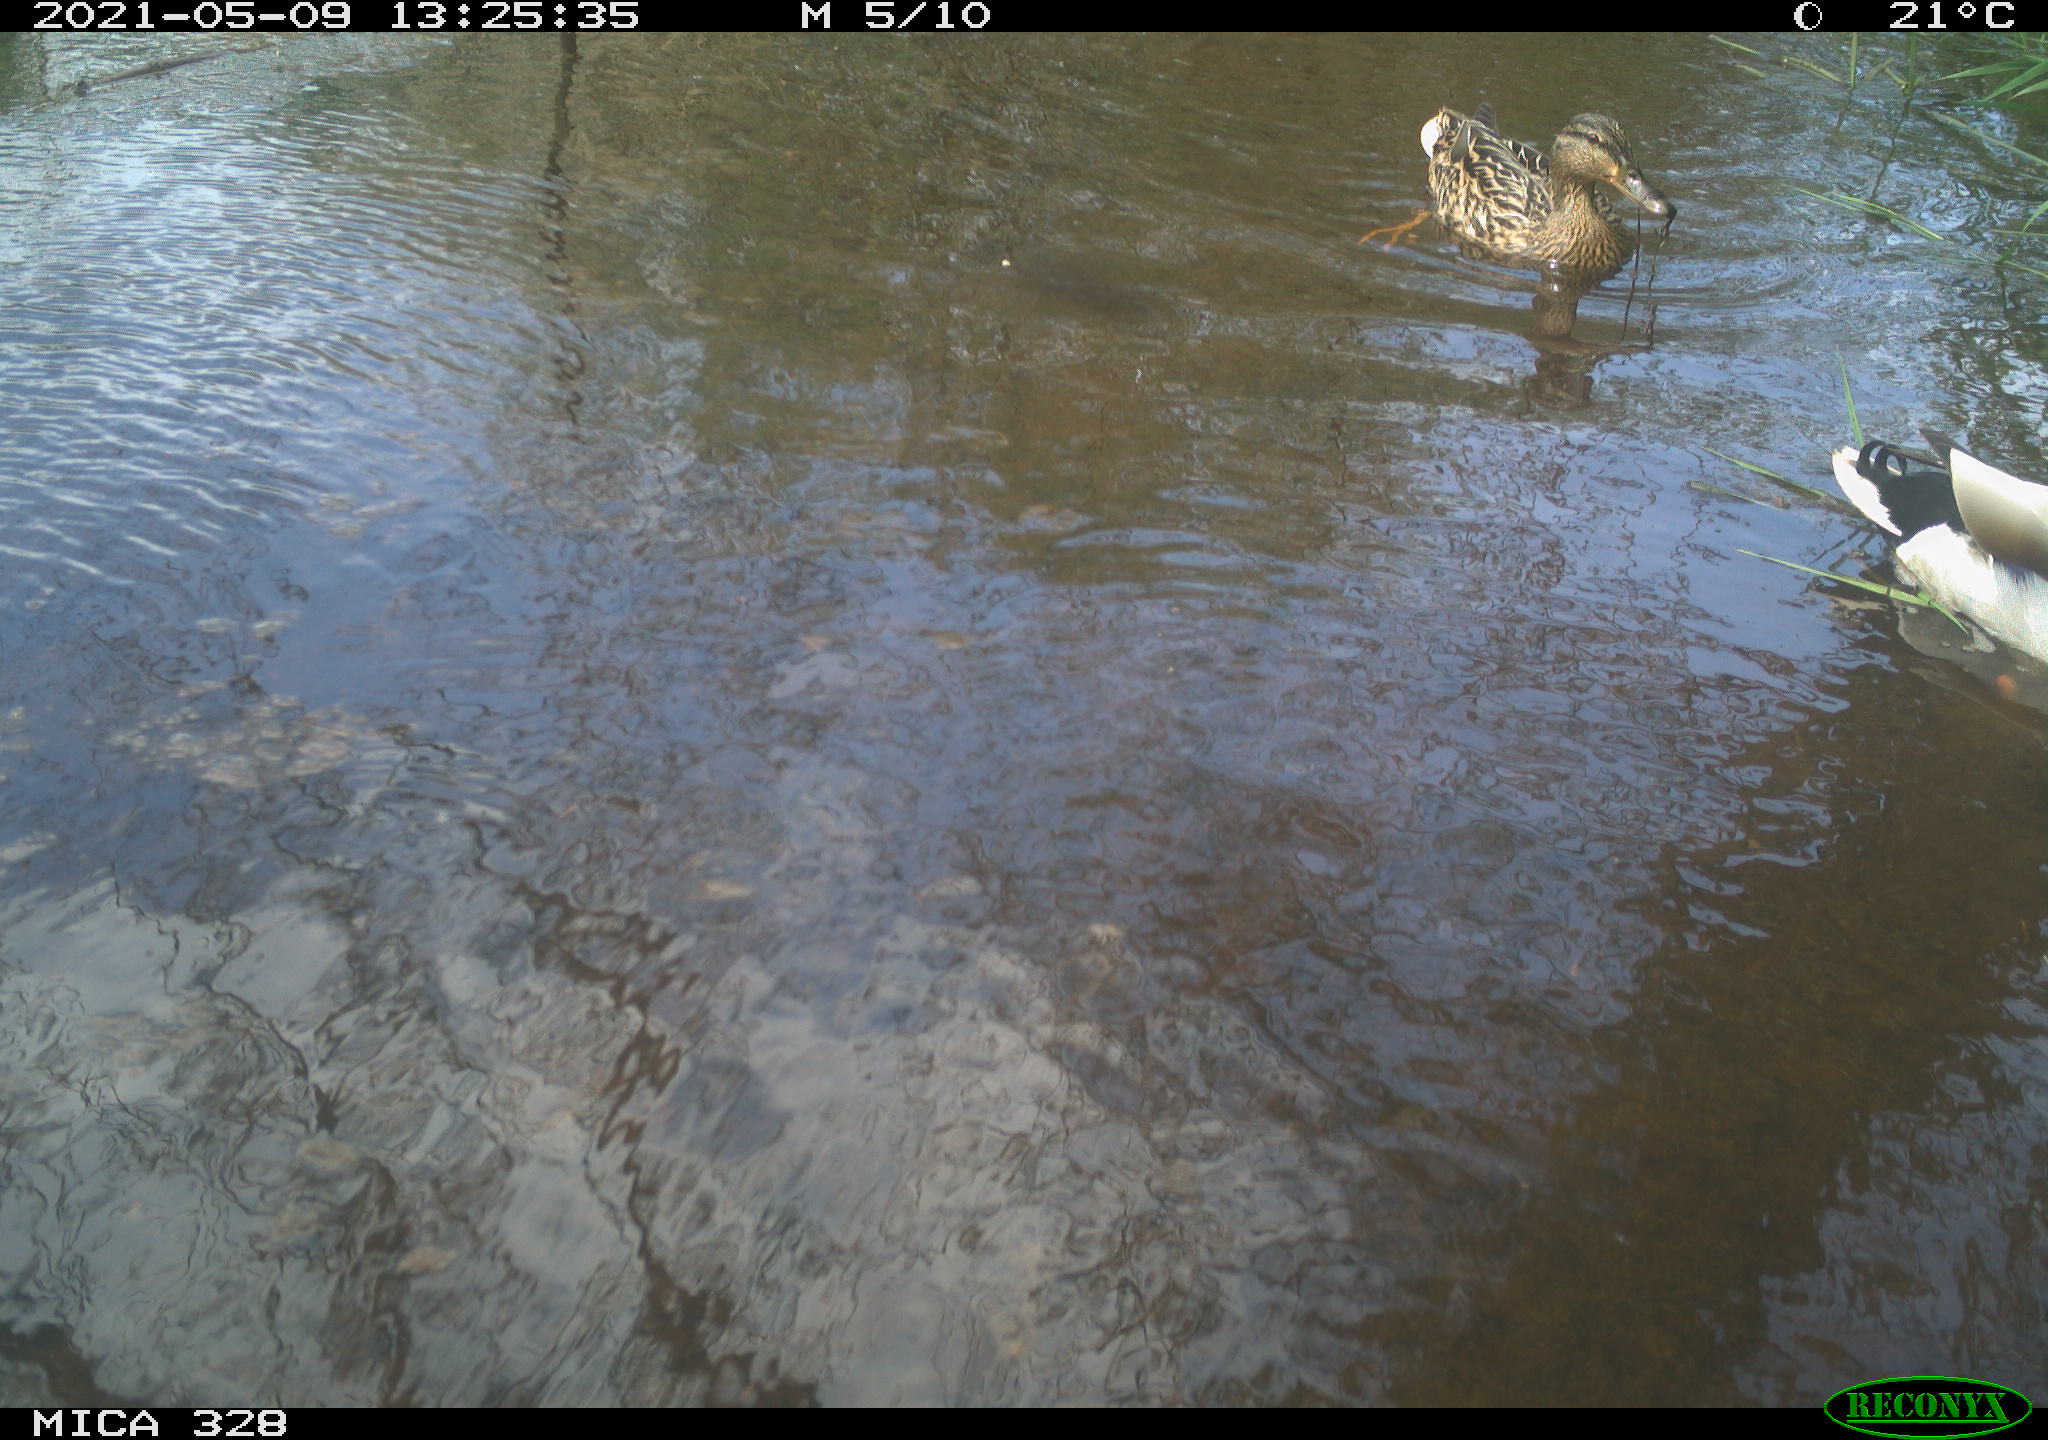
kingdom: Animalia
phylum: Chordata
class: Aves
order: Anseriformes
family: Anatidae
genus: Anas
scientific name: Anas platyrhynchos
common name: Mallard
